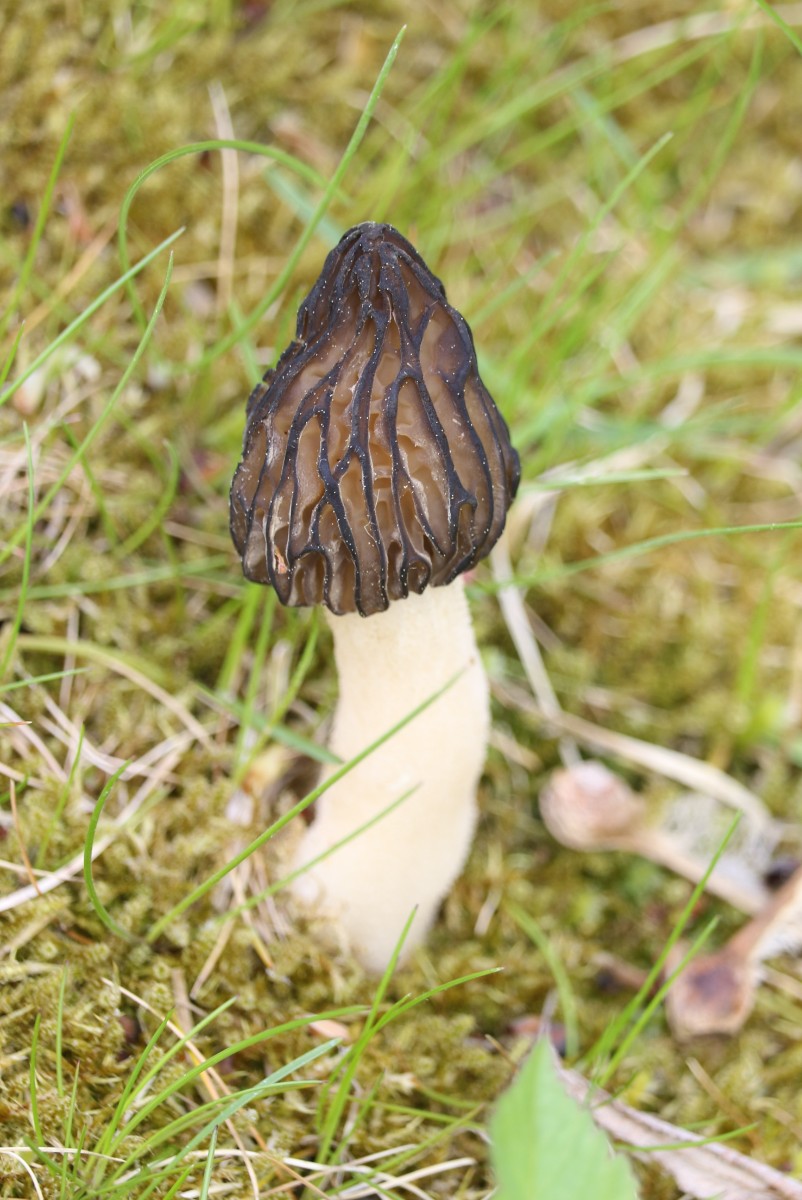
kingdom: Fungi
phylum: Ascomycota
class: Pezizomycetes
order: Pezizales
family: Morchellaceae
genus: Morchella
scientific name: Morchella semilibera
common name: hætte-morkel
